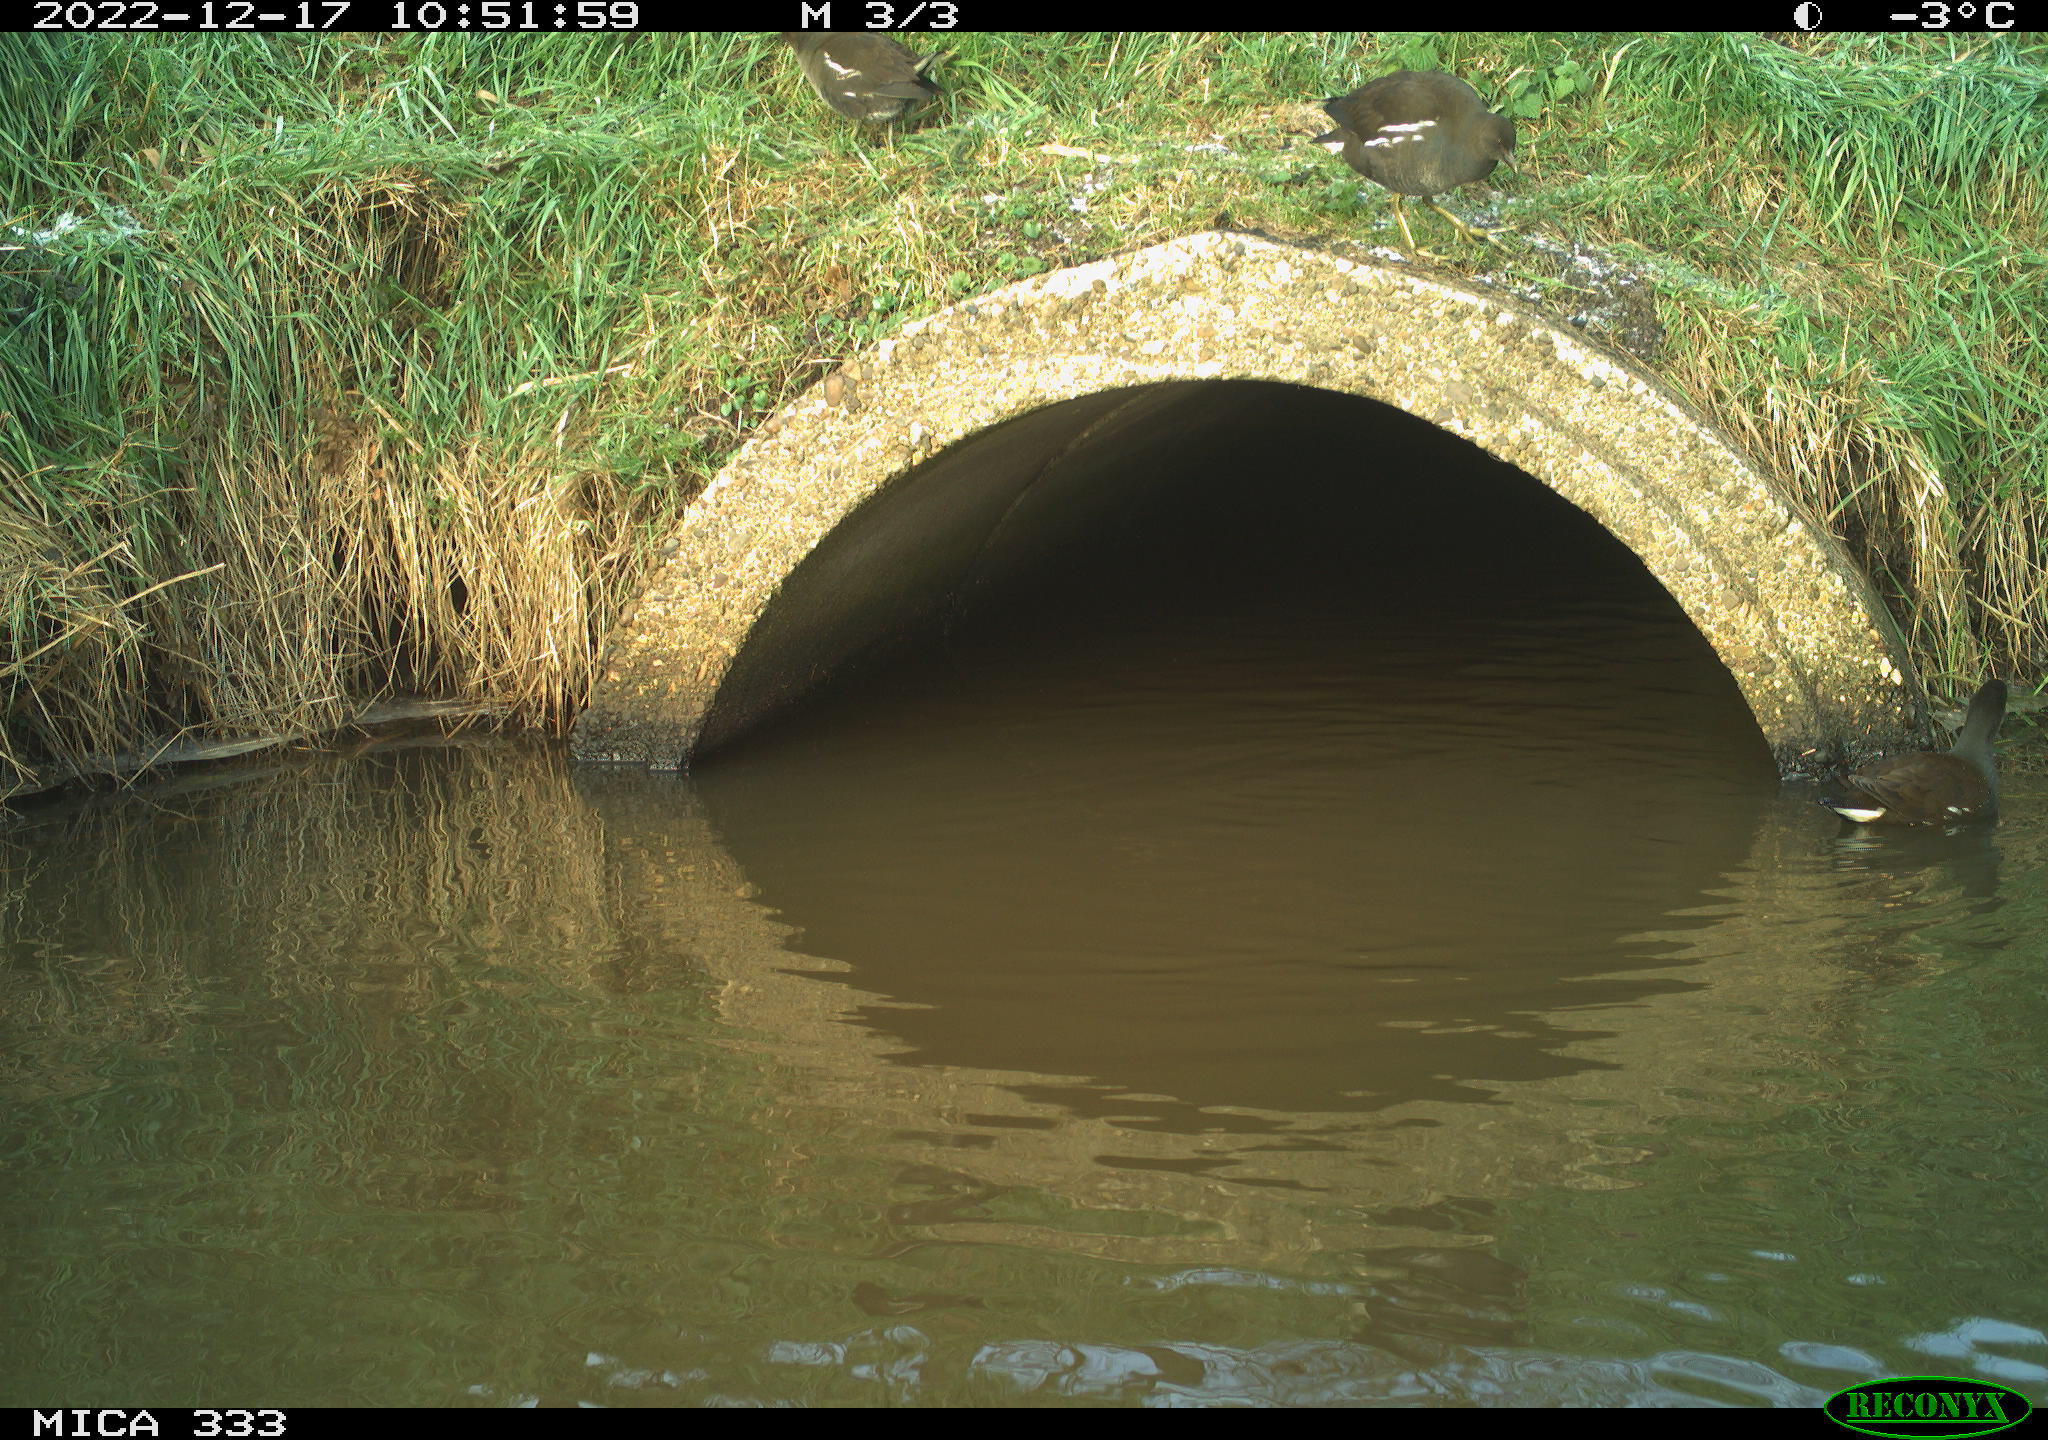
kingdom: Animalia
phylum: Chordata
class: Aves
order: Gruiformes
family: Rallidae
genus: Gallinula
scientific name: Gallinula chloropus
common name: Common moorhen
